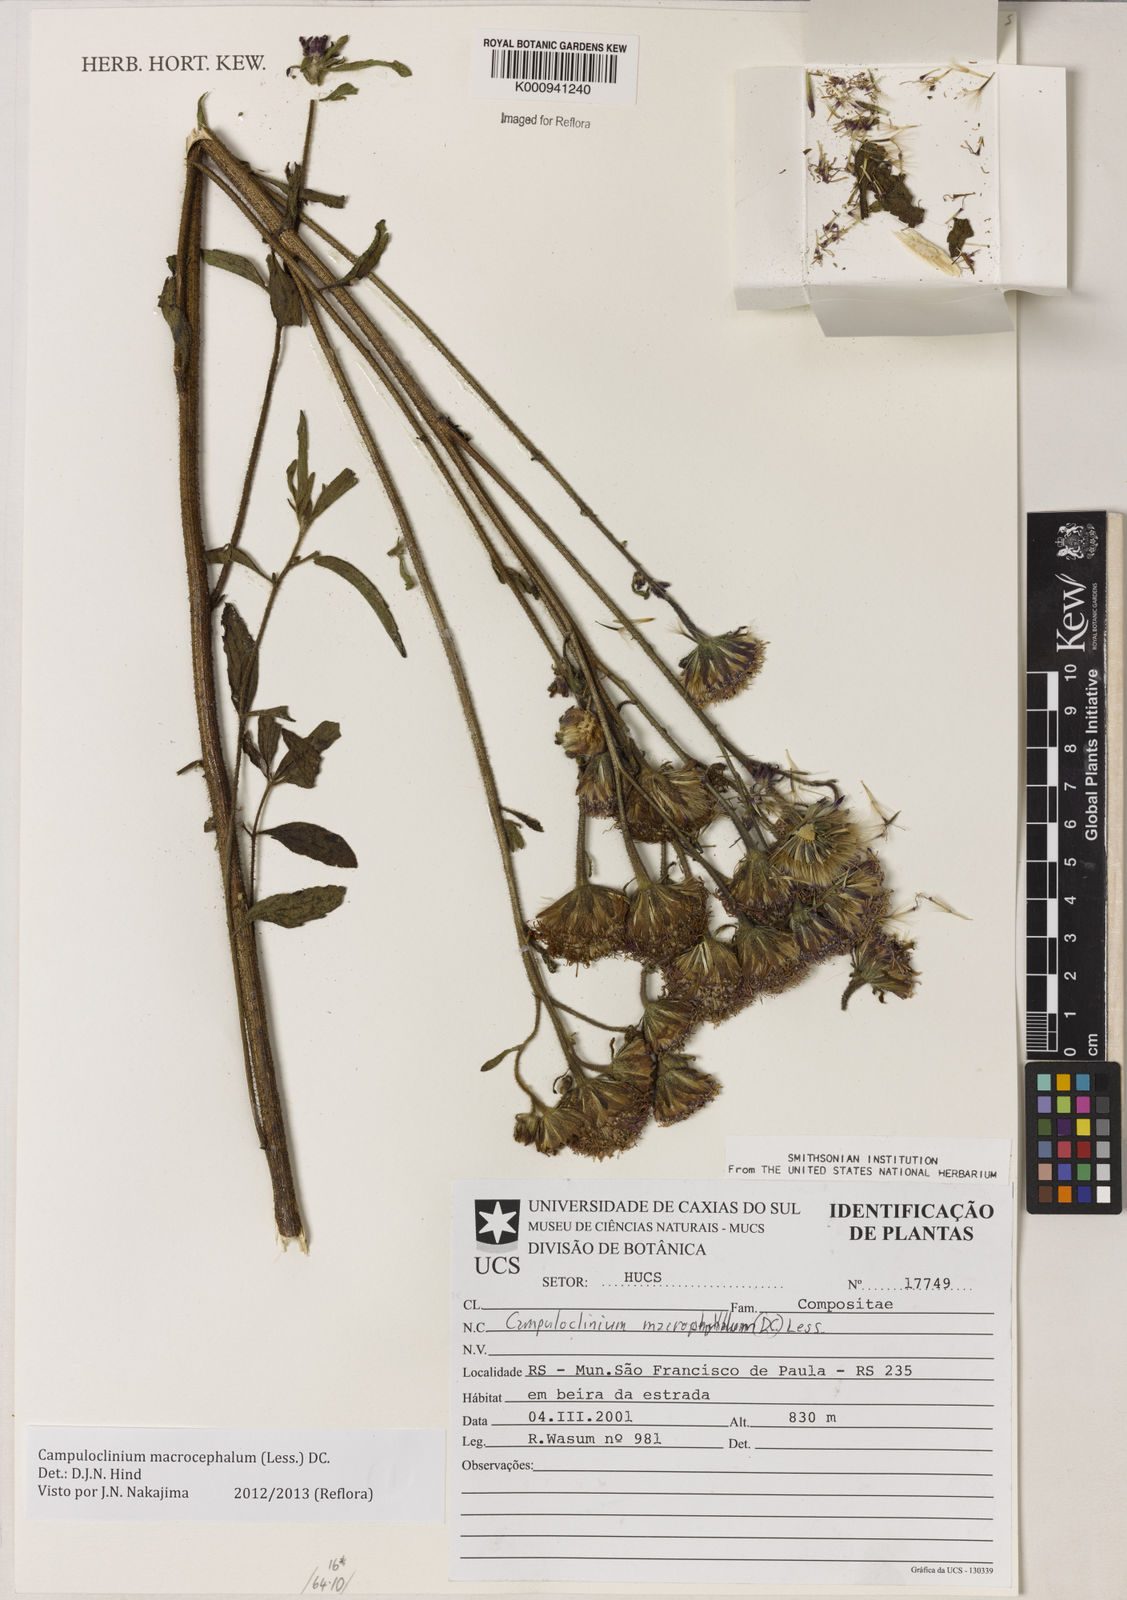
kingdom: Plantae
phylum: Tracheophyta
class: Magnoliopsida
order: Asterales
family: Asteraceae
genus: Campuloclinium
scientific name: Campuloclinium macrocephalum
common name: Pompomweed
